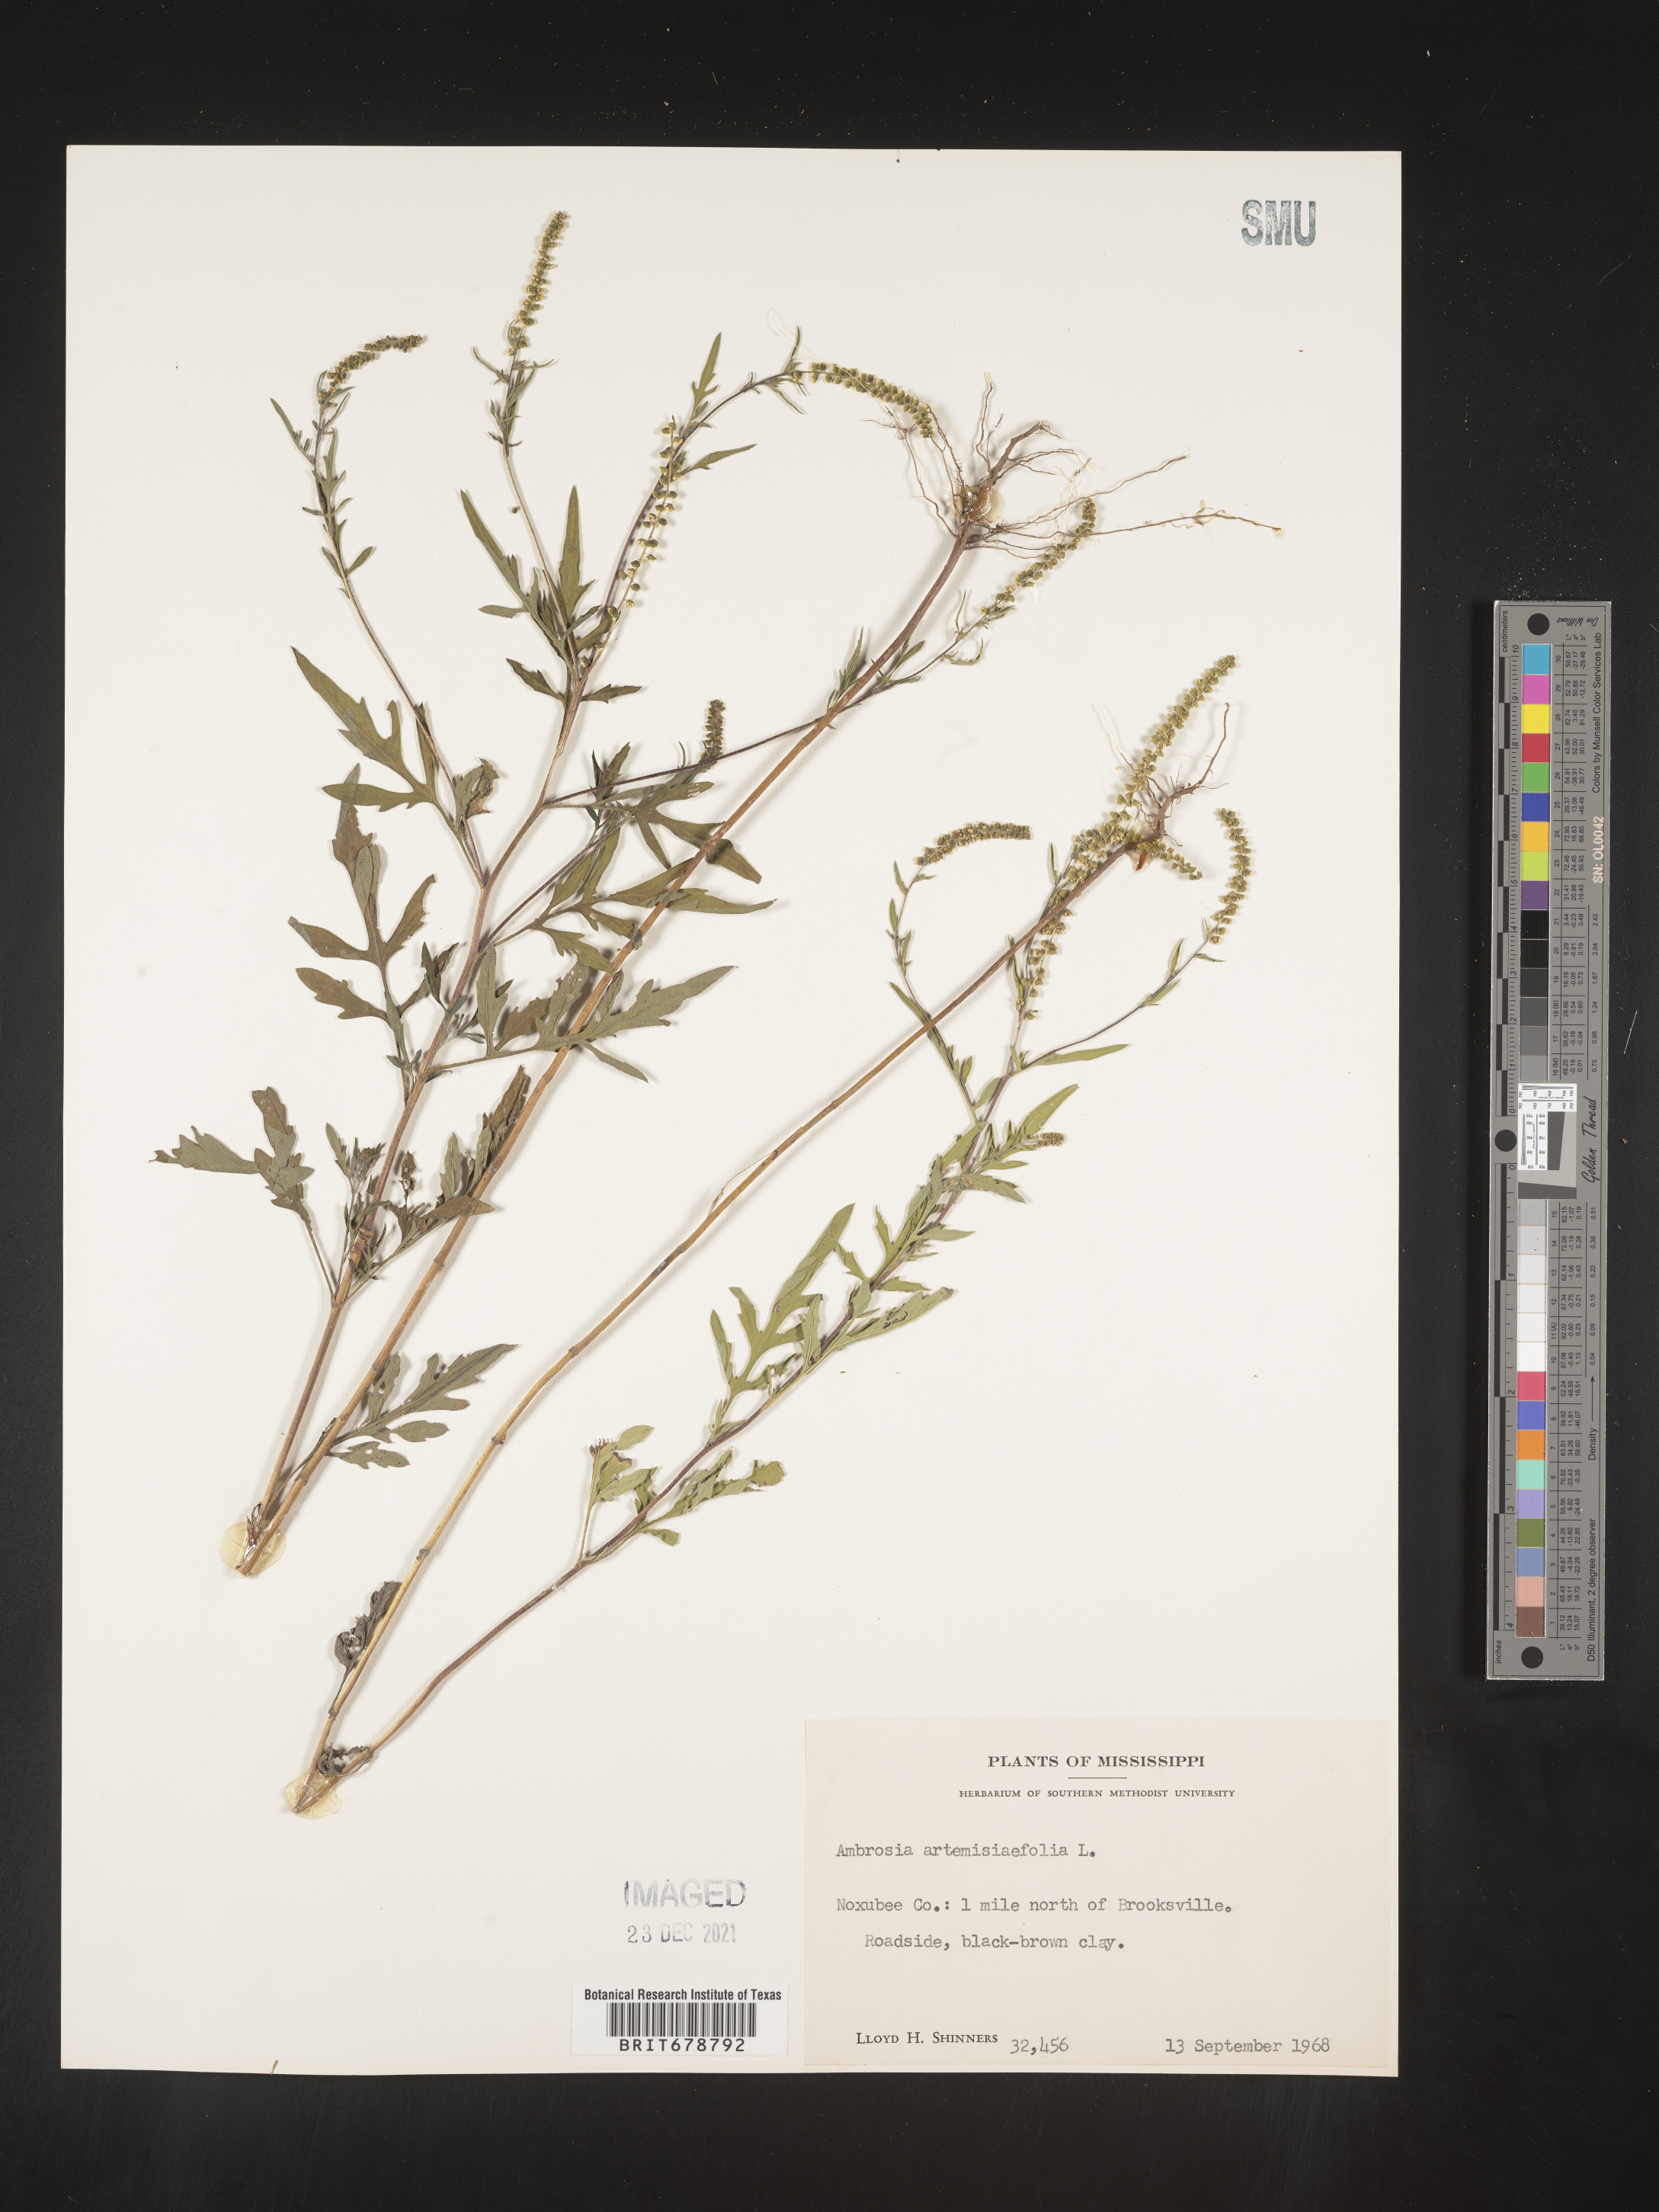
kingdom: Plantae
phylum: Tracheophyta
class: Magnoliopsida
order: Asterales
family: Asteraceae
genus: Ambrosia
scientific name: Ambrosia artemisiifolia
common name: Annual ragweed
